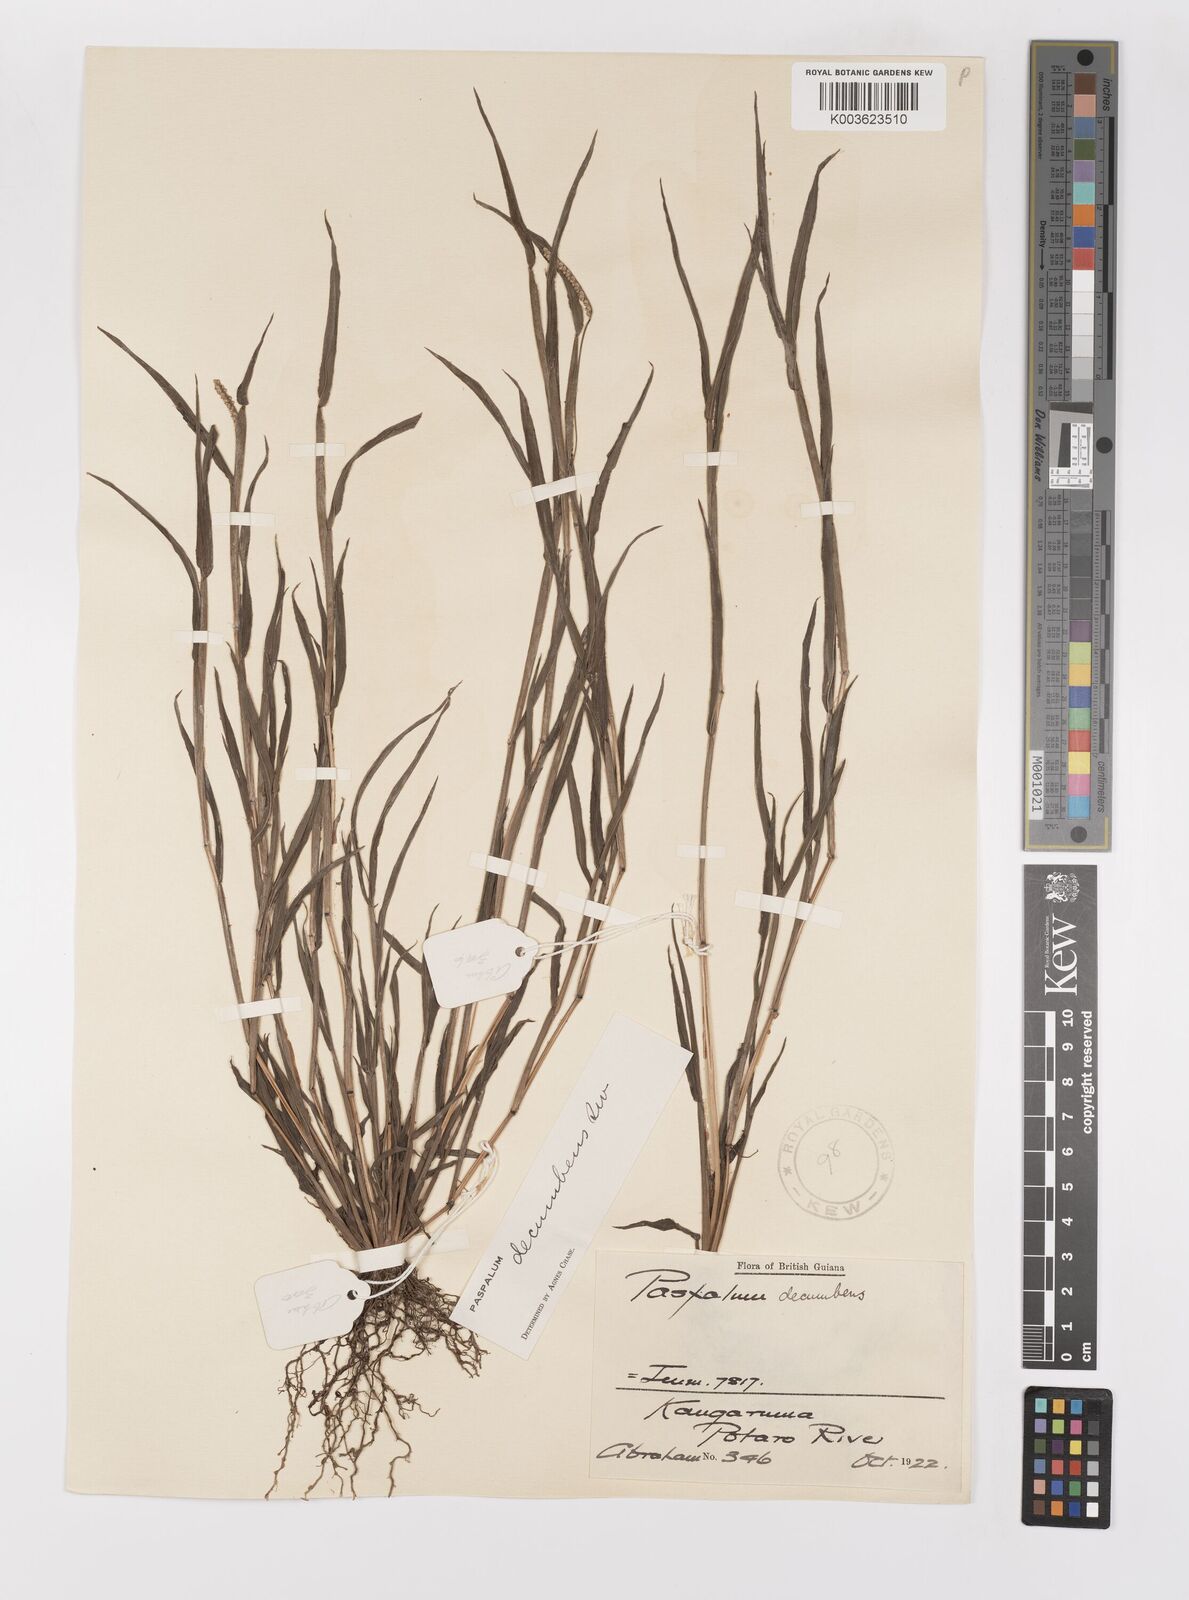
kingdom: Plantae
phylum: Tracheophyta
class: Liliopsida
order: Poales
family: Poaceae
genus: Paspalum
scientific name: Paspalum decumbens
